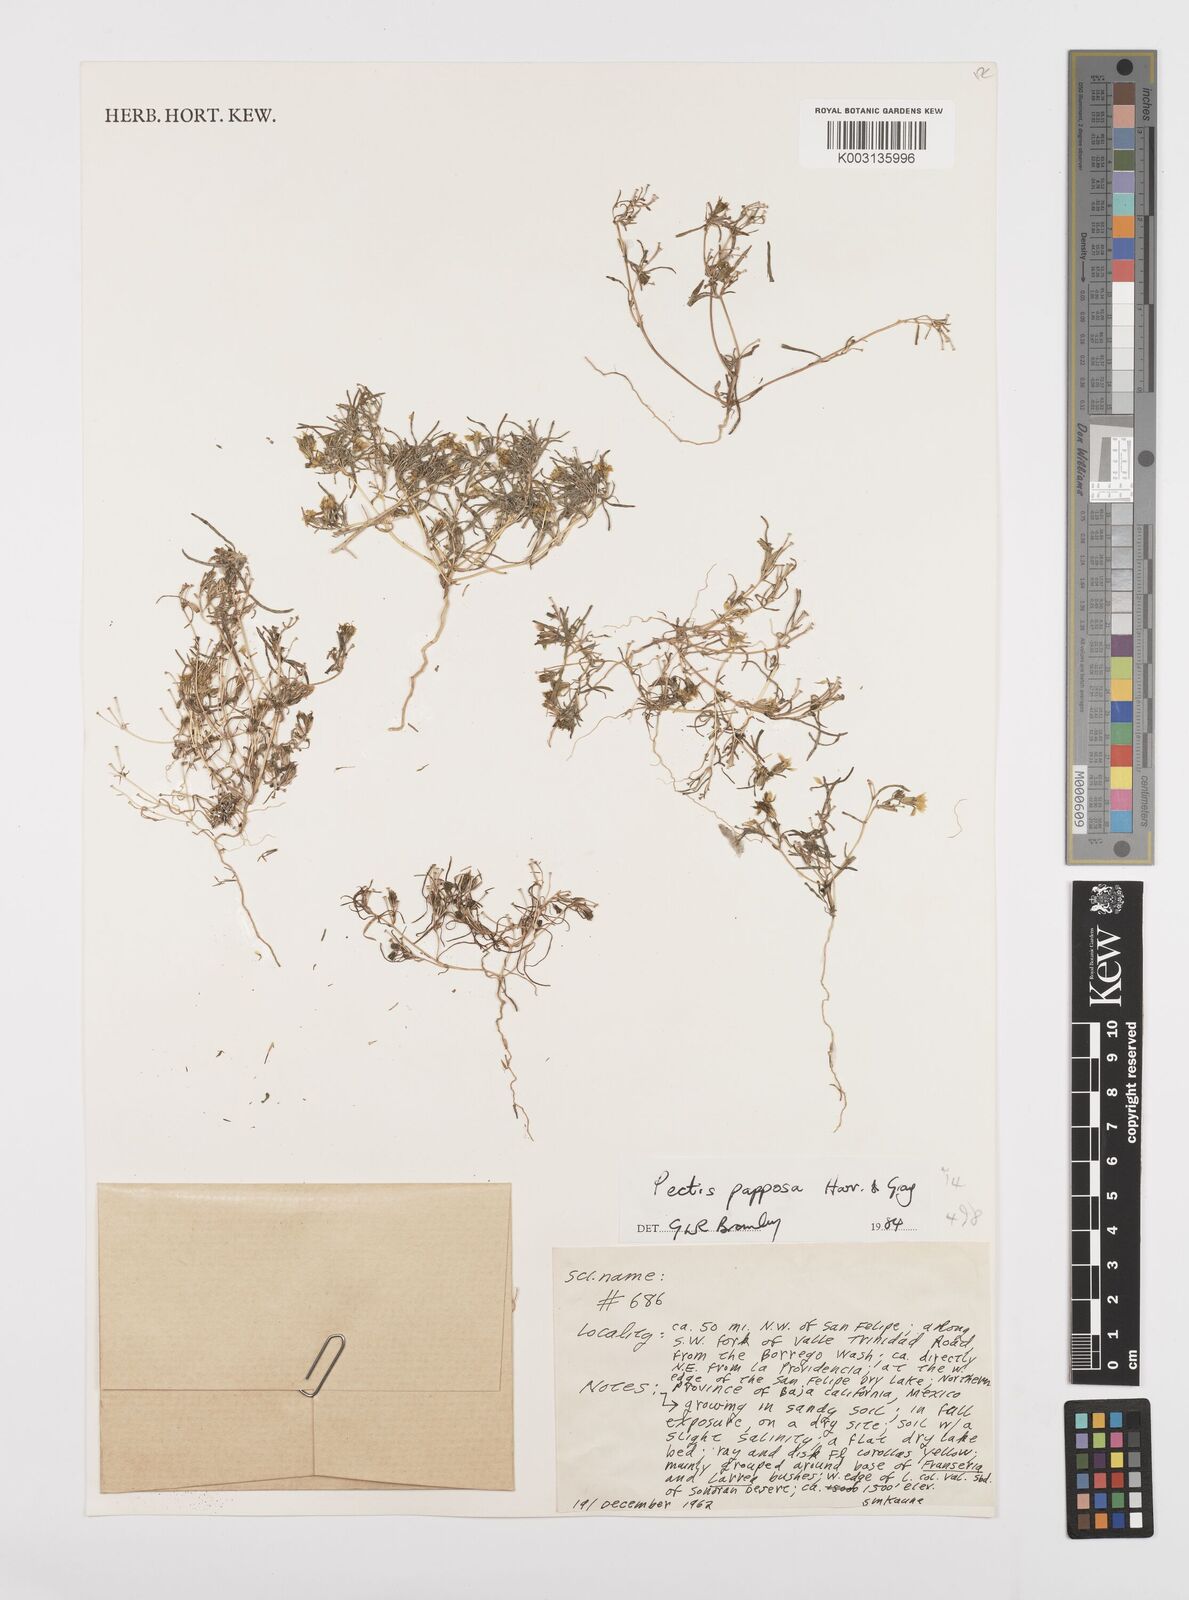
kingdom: Plantae
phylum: Tracheophyta
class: Magnoliopsida
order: Asterales
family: Asteraceae
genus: Pectis
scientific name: Pectis papposa
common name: Many-bristle chinchweed
